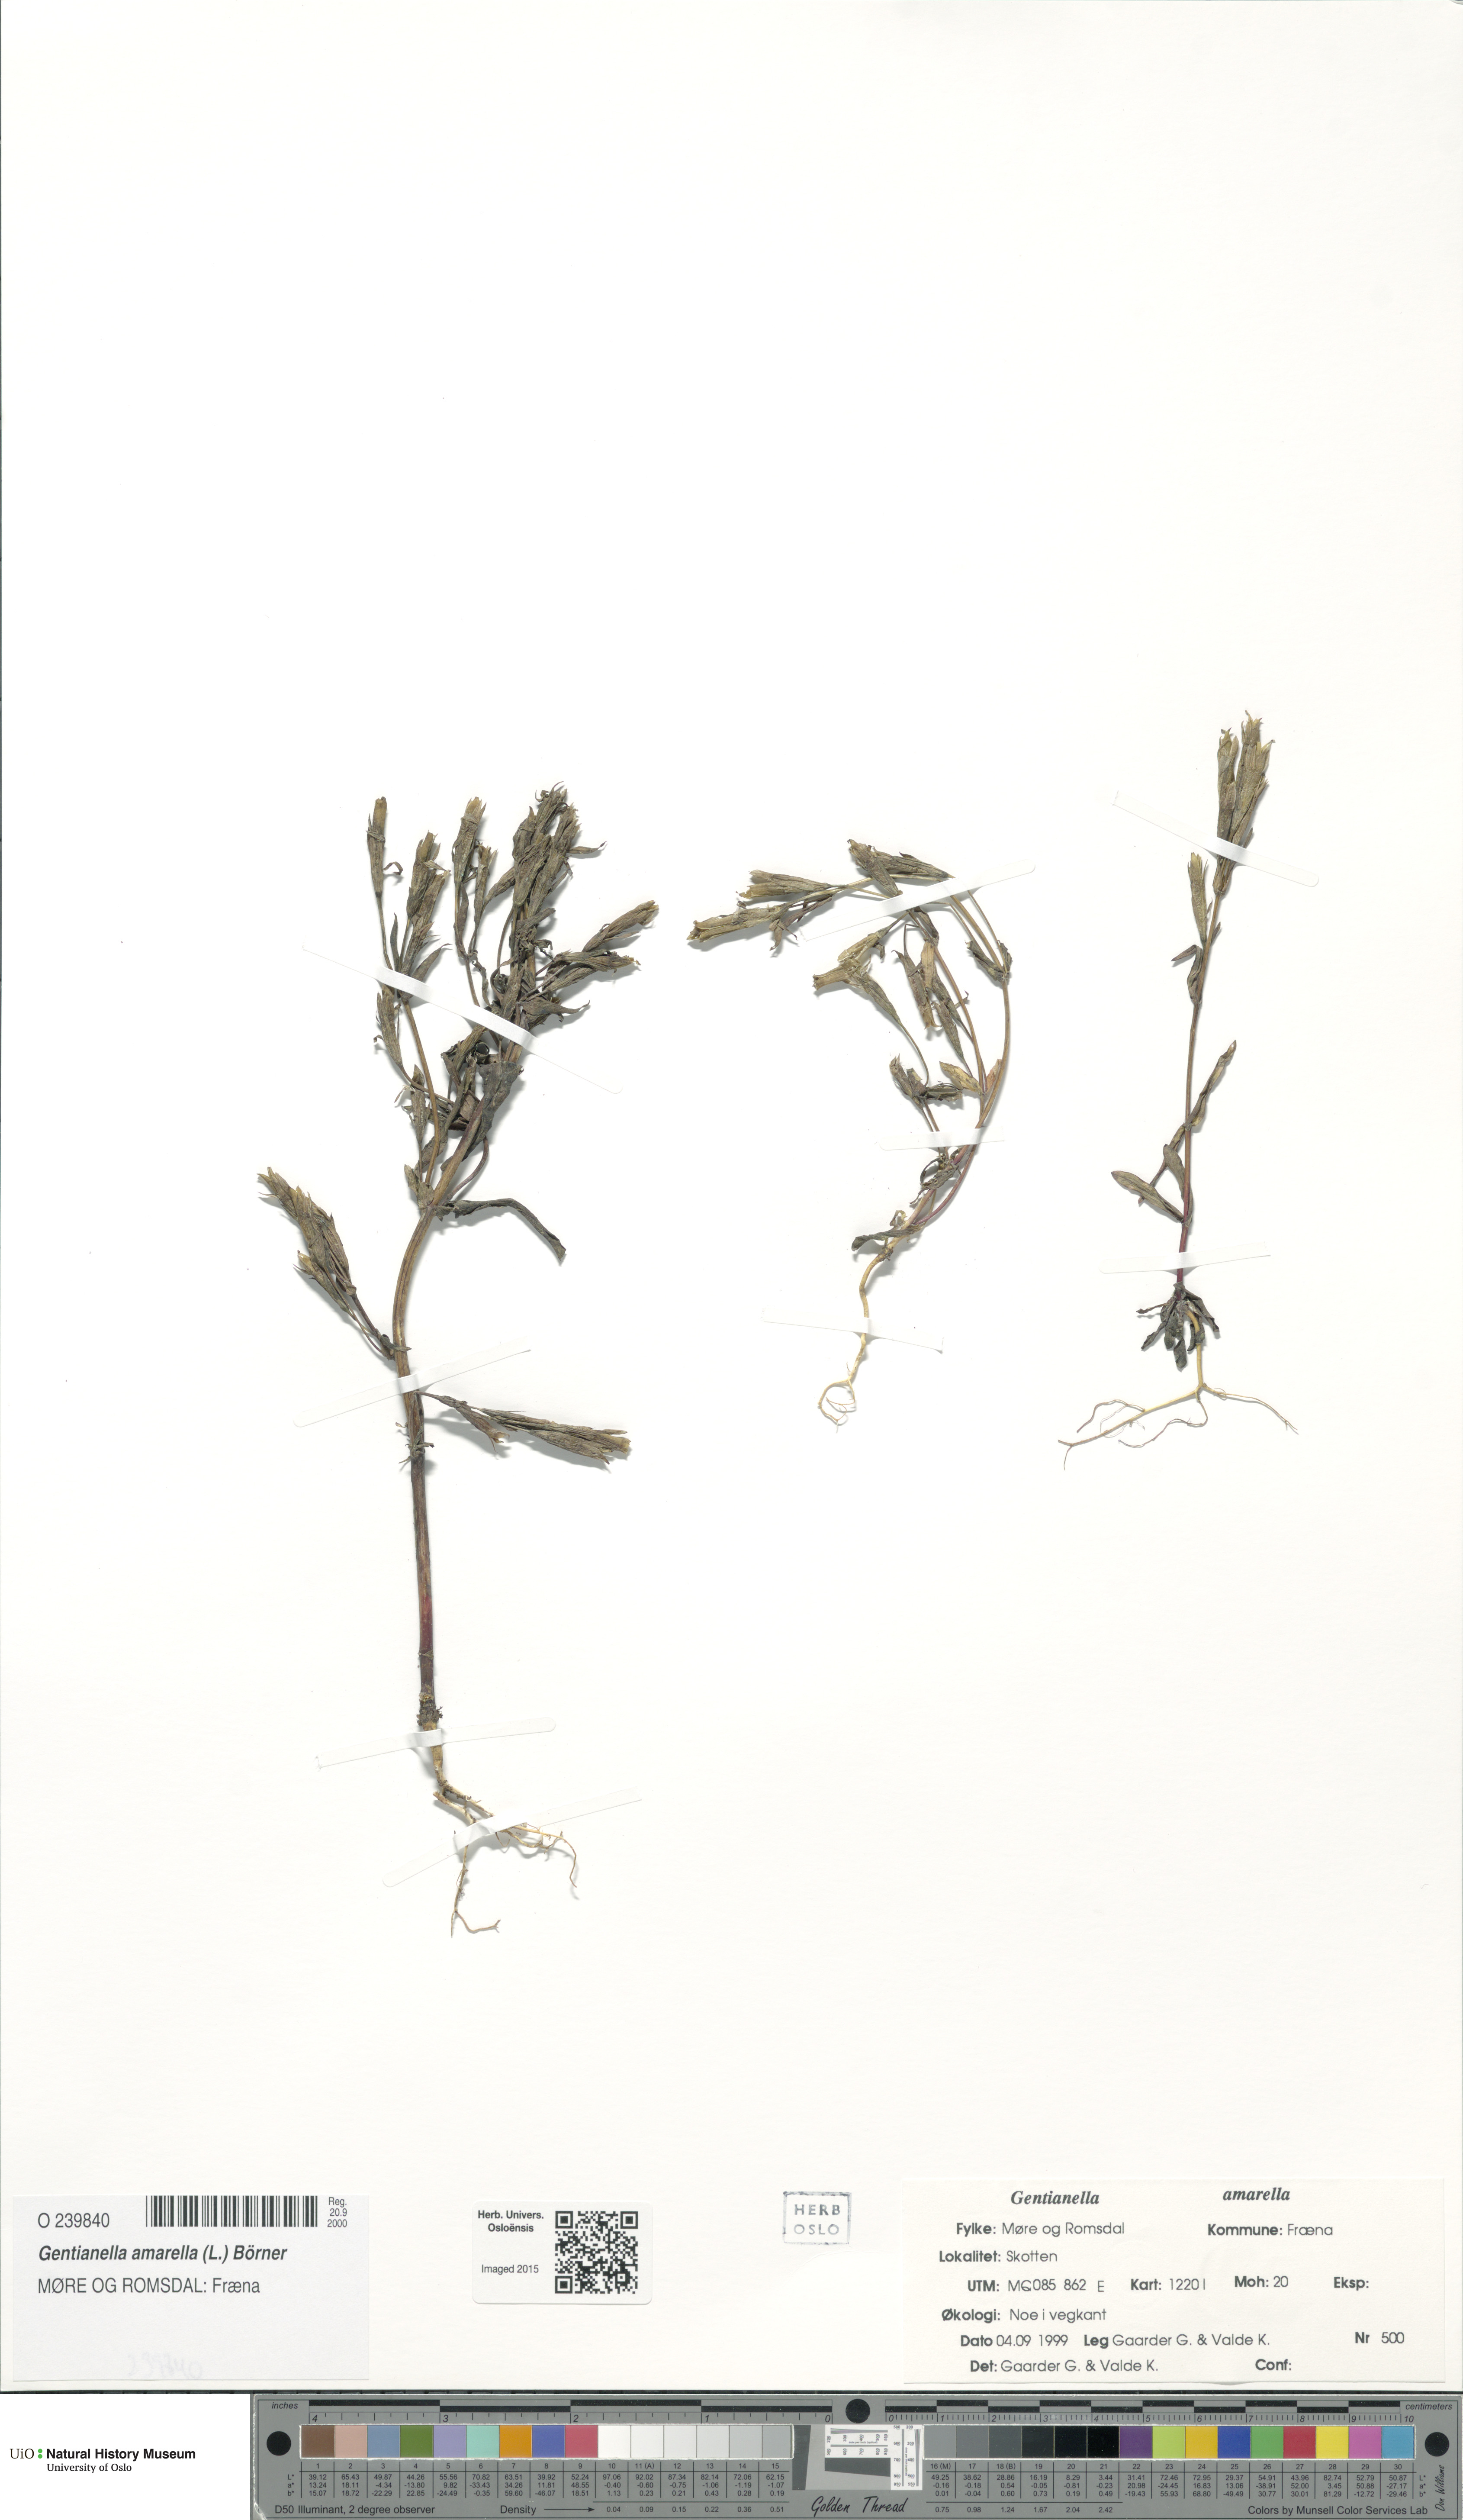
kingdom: Plantae
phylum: Tracheophyta
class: Magnoliopsida
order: Gentianales
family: Gentianaceae
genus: Gentianella
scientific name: Gentianella amarella
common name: Autumn gentian
